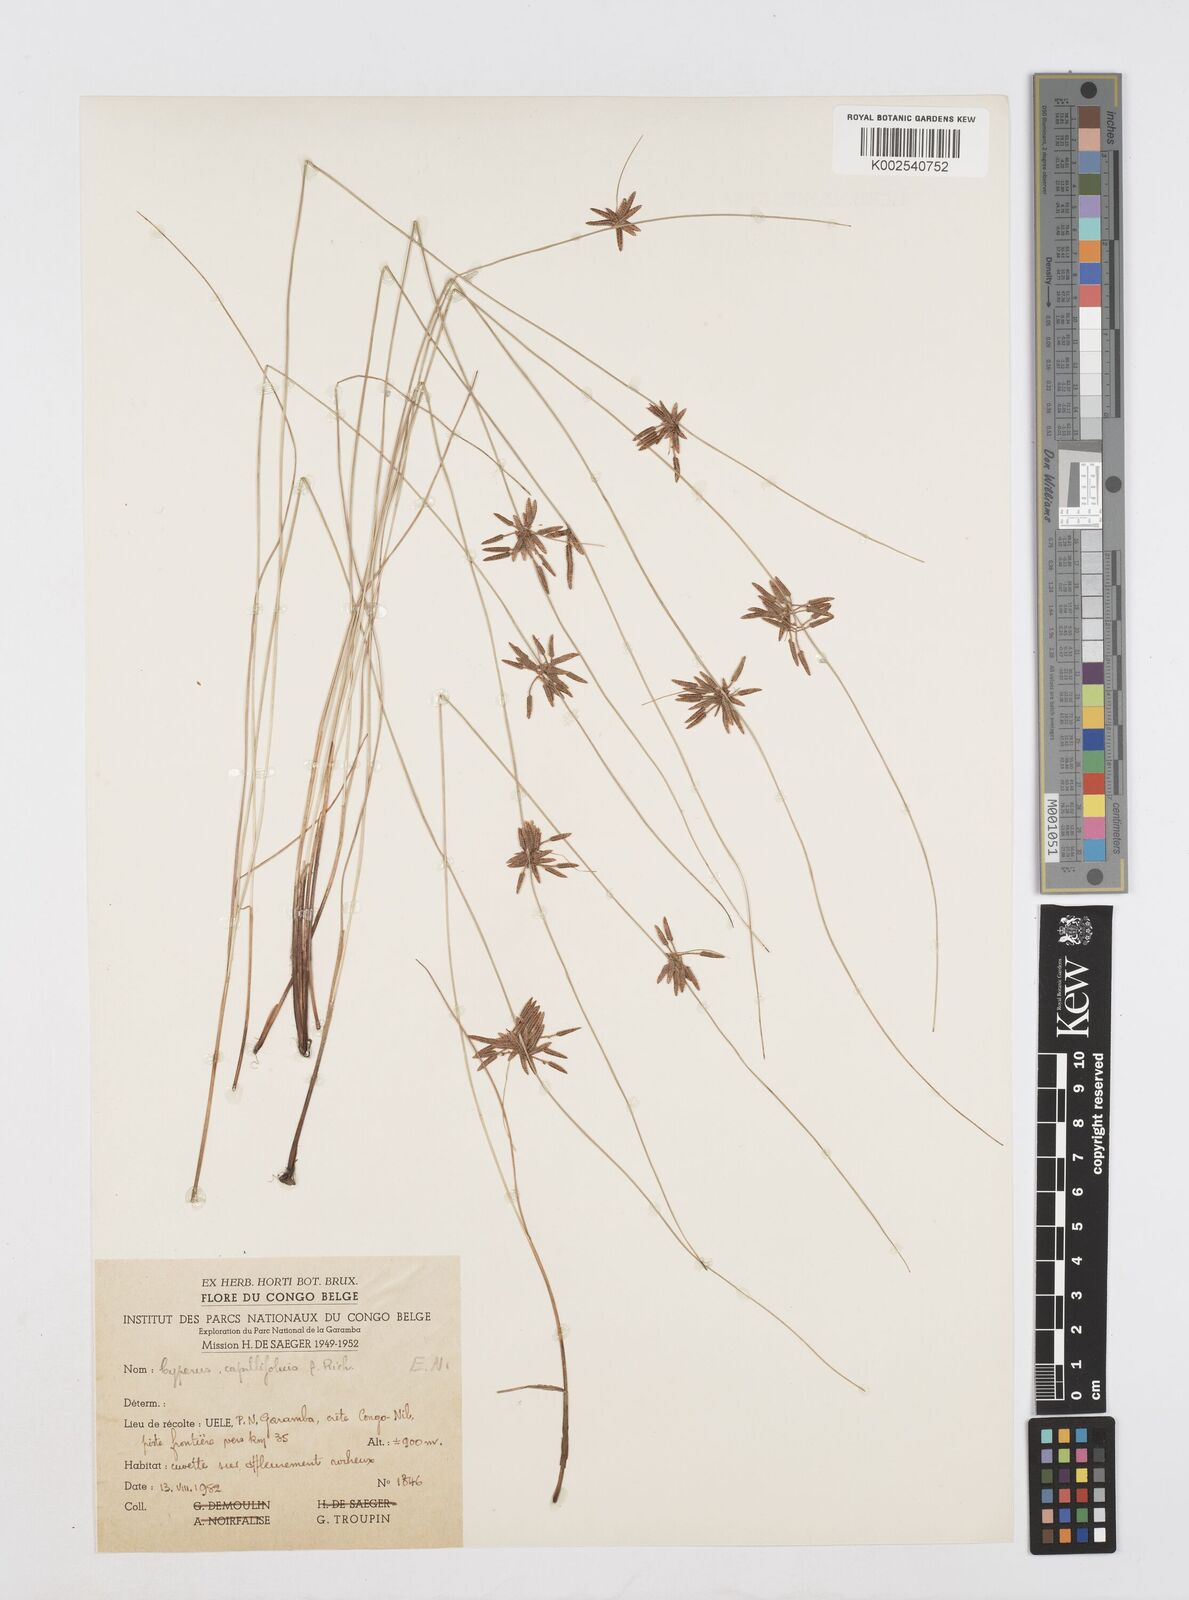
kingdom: Plantae
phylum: Tracheophyta
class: Liliopsida
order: Poales
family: Cyperaceae
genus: Cyperus
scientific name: Cyperus capillifolius
